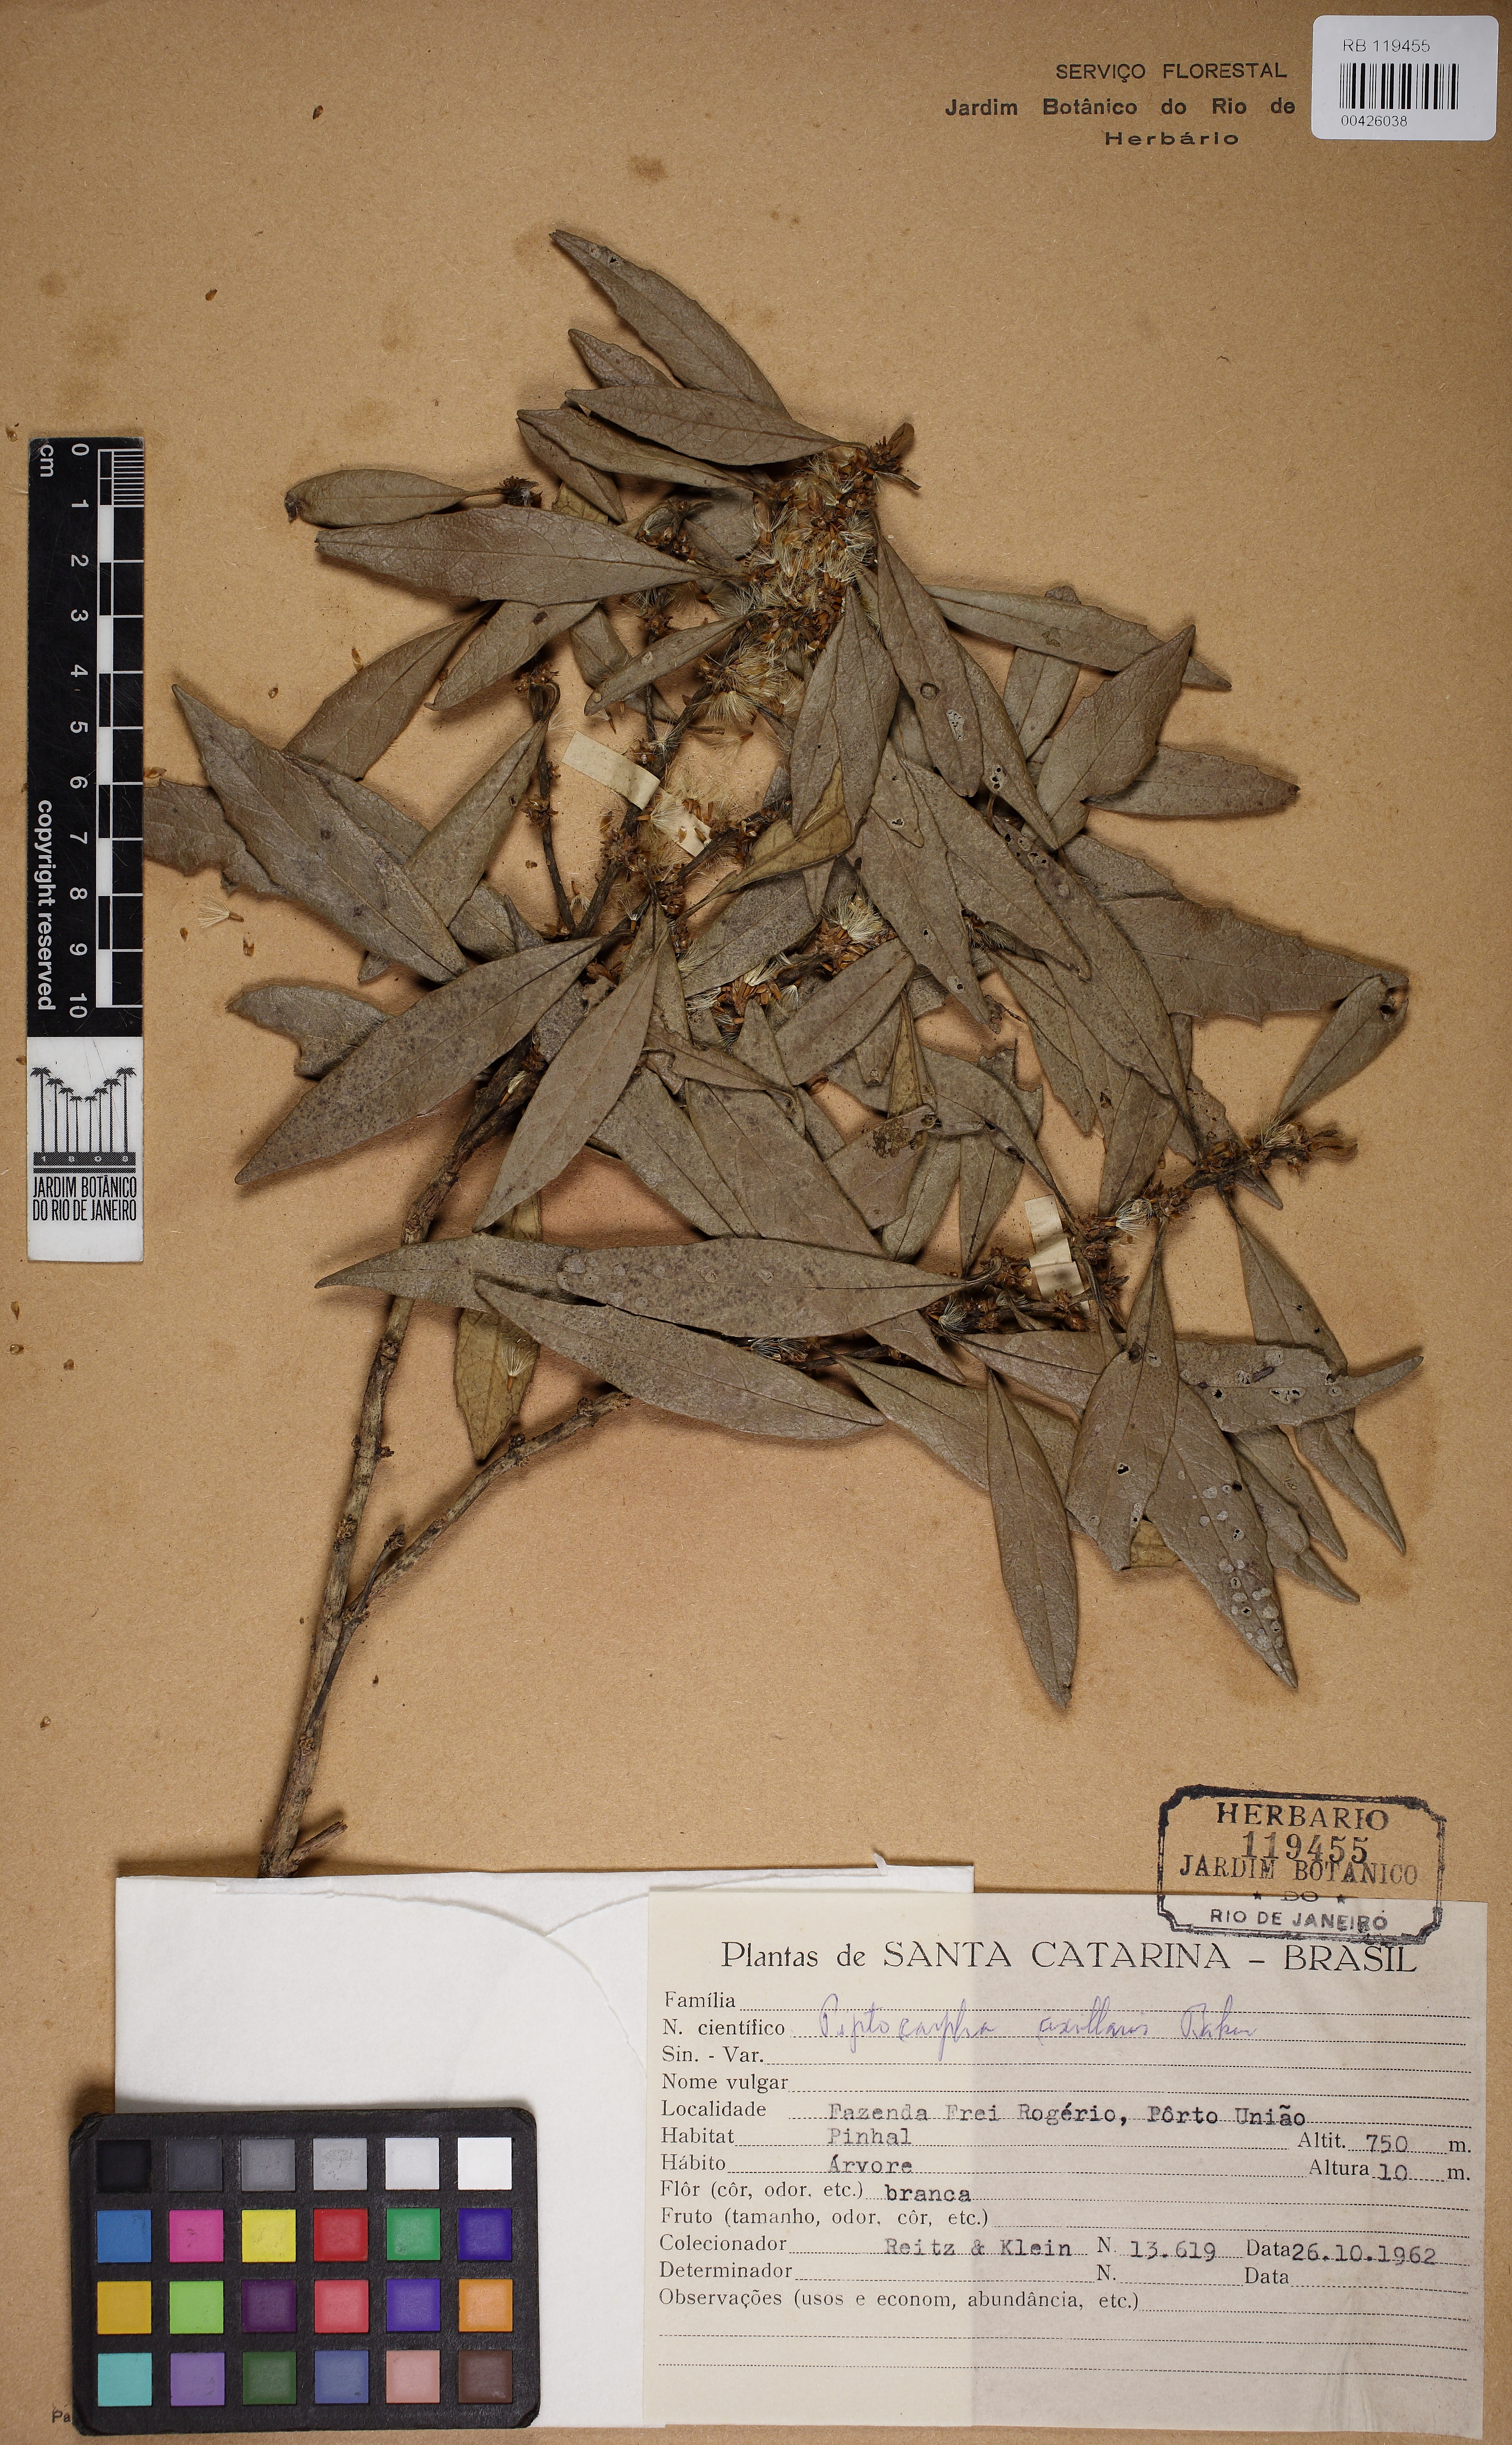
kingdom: Plantae
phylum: Tracheophyta
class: Magnoliopsida
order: Asterales
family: Asteraceae
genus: Piptocarpha
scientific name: Piptocarpha regnellii
